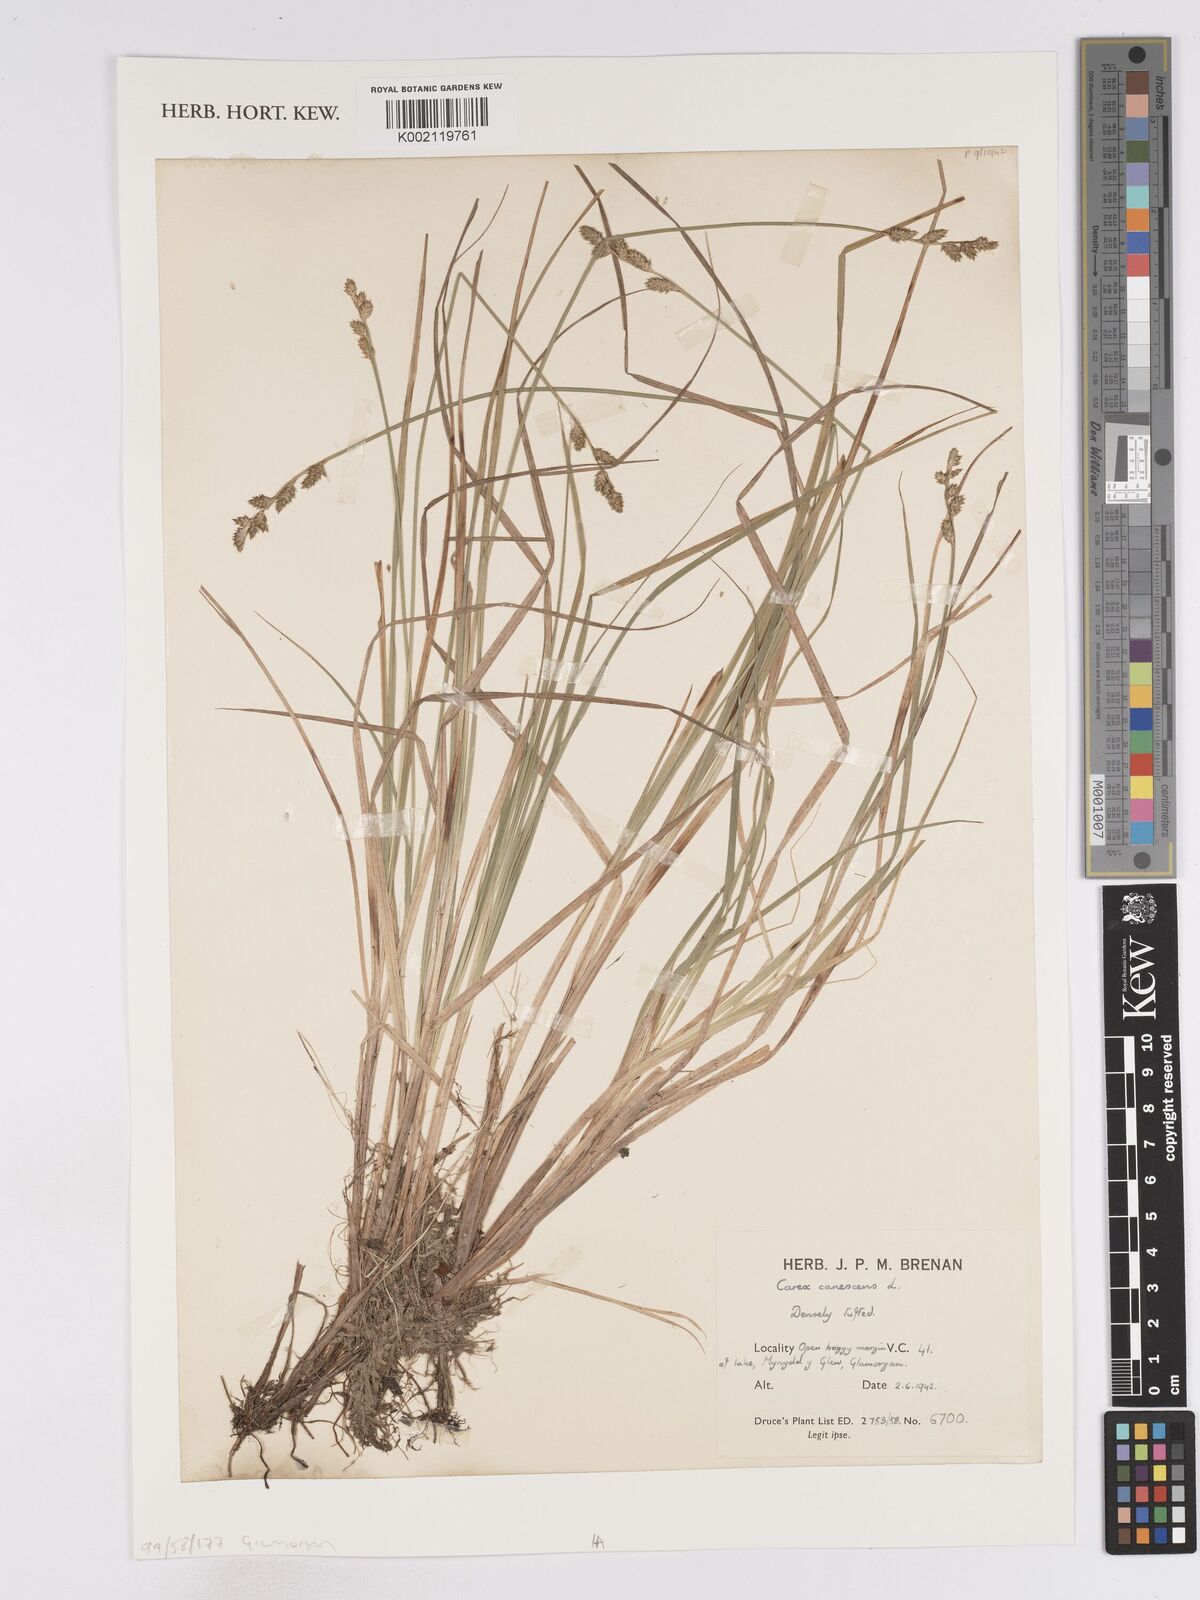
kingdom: Plantae
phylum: Tracheophyta
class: Liliopsida
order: Poales
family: Cyperaceae
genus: Carex
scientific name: Carex curta
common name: White sedge
